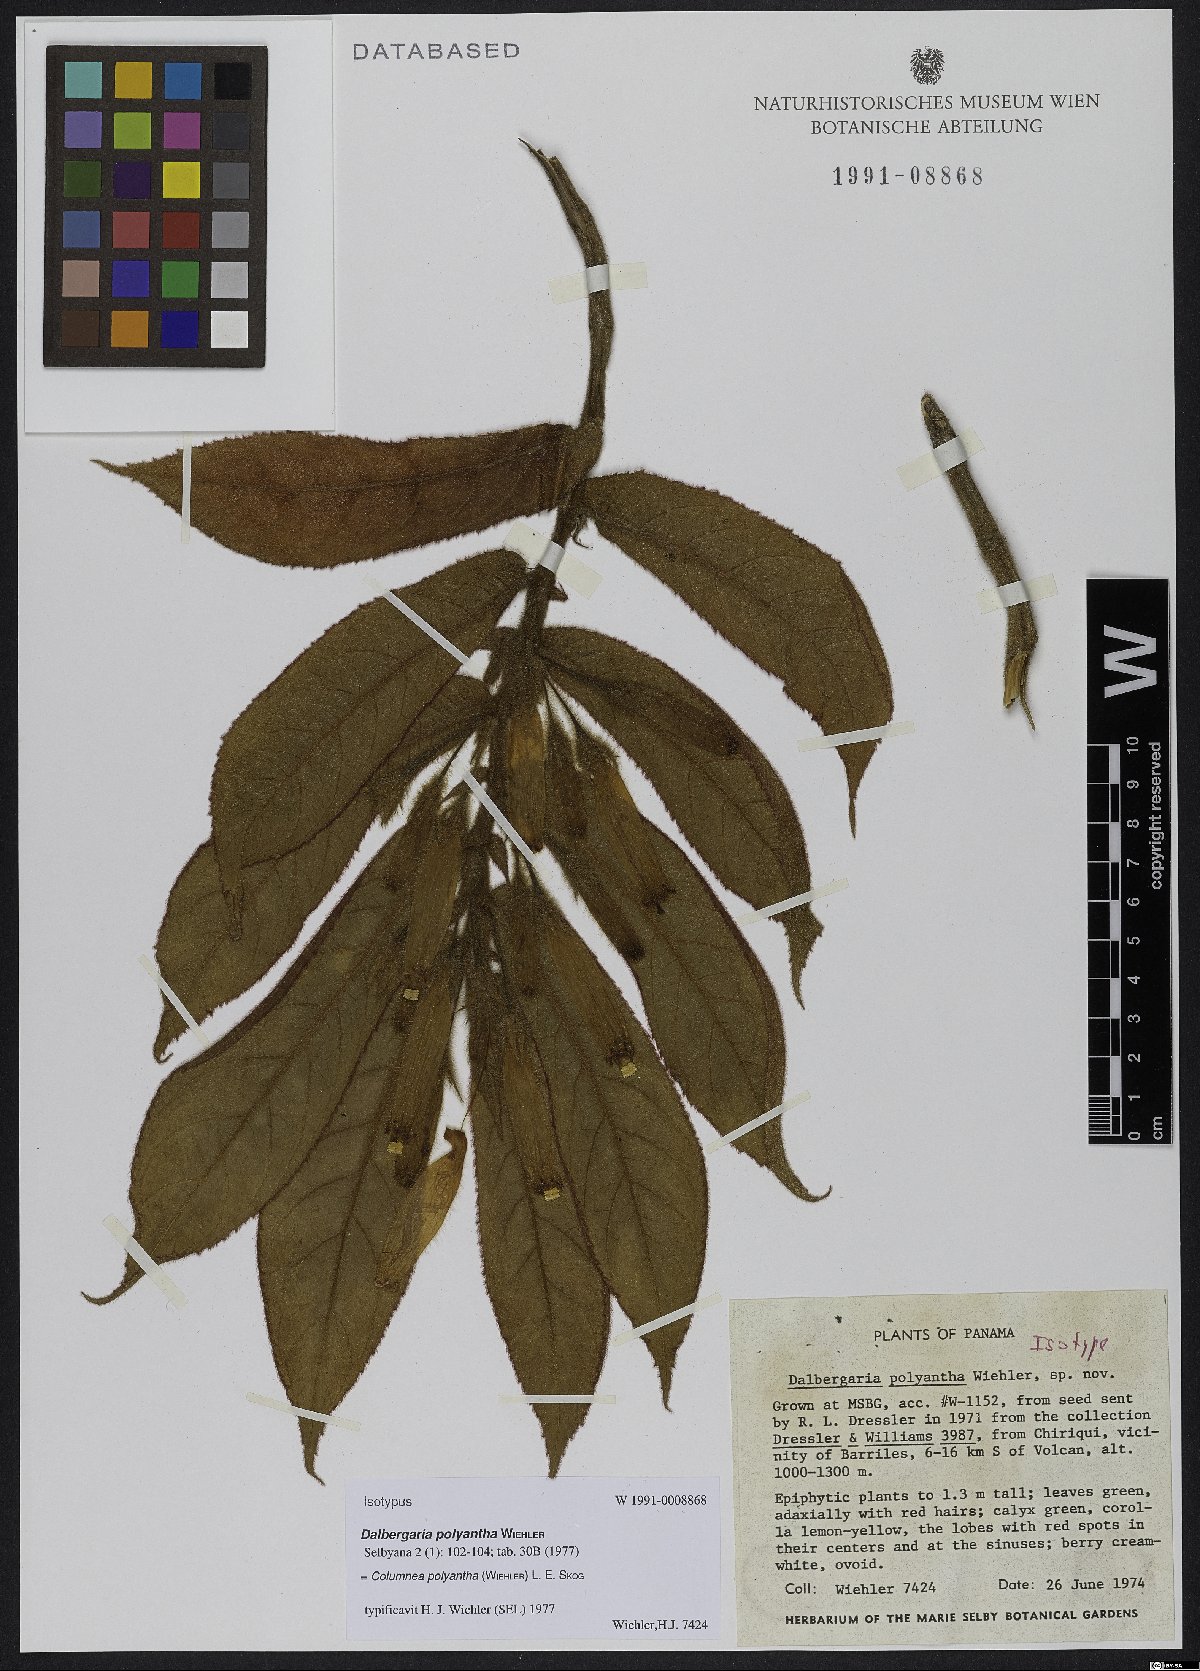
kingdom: Plantae
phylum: Tracheophyta
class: Magnoliopsida
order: Lamiales
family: Gesneriaceae
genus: Columnea
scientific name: Columnea polyantha
